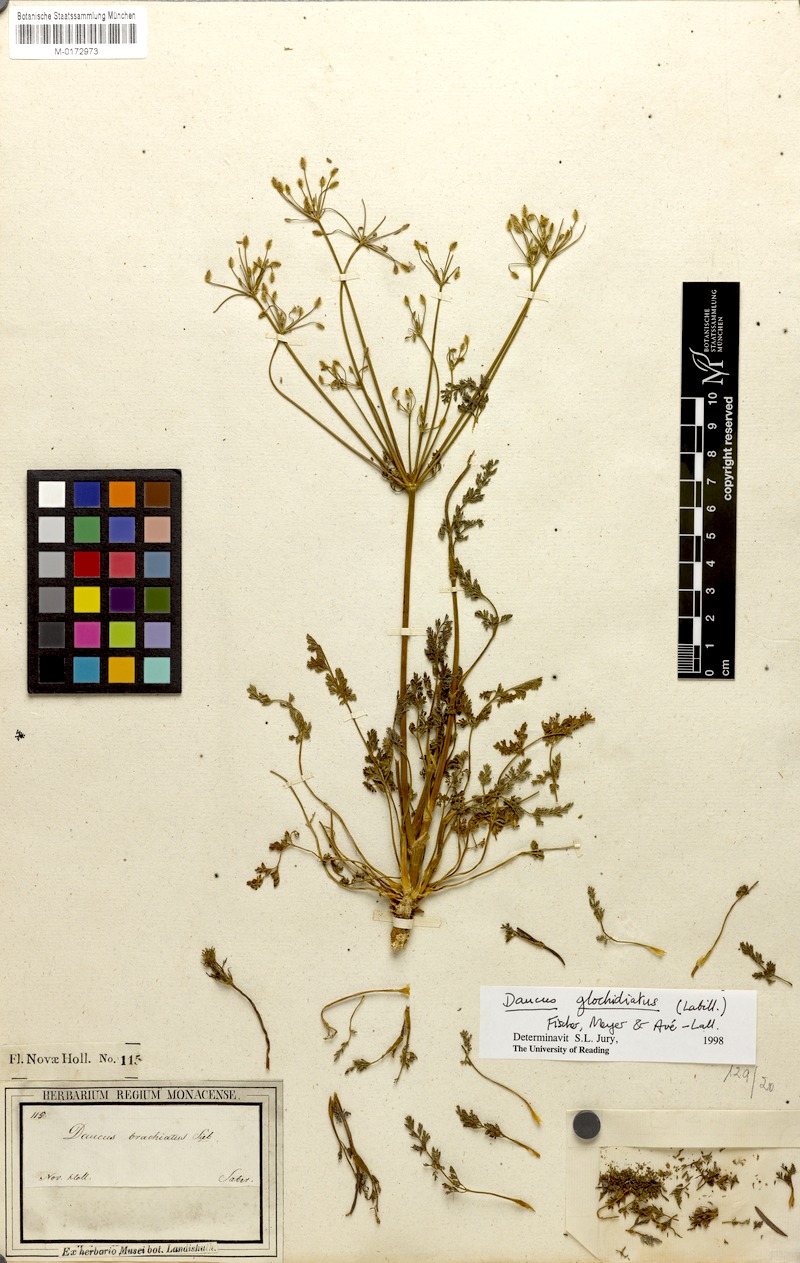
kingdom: Plantae
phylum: Tracheophyta
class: Magnoliopsida
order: Apiales
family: Apiaceae
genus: Daucus
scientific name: Daucus glochidiatus
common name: Australian carrot
